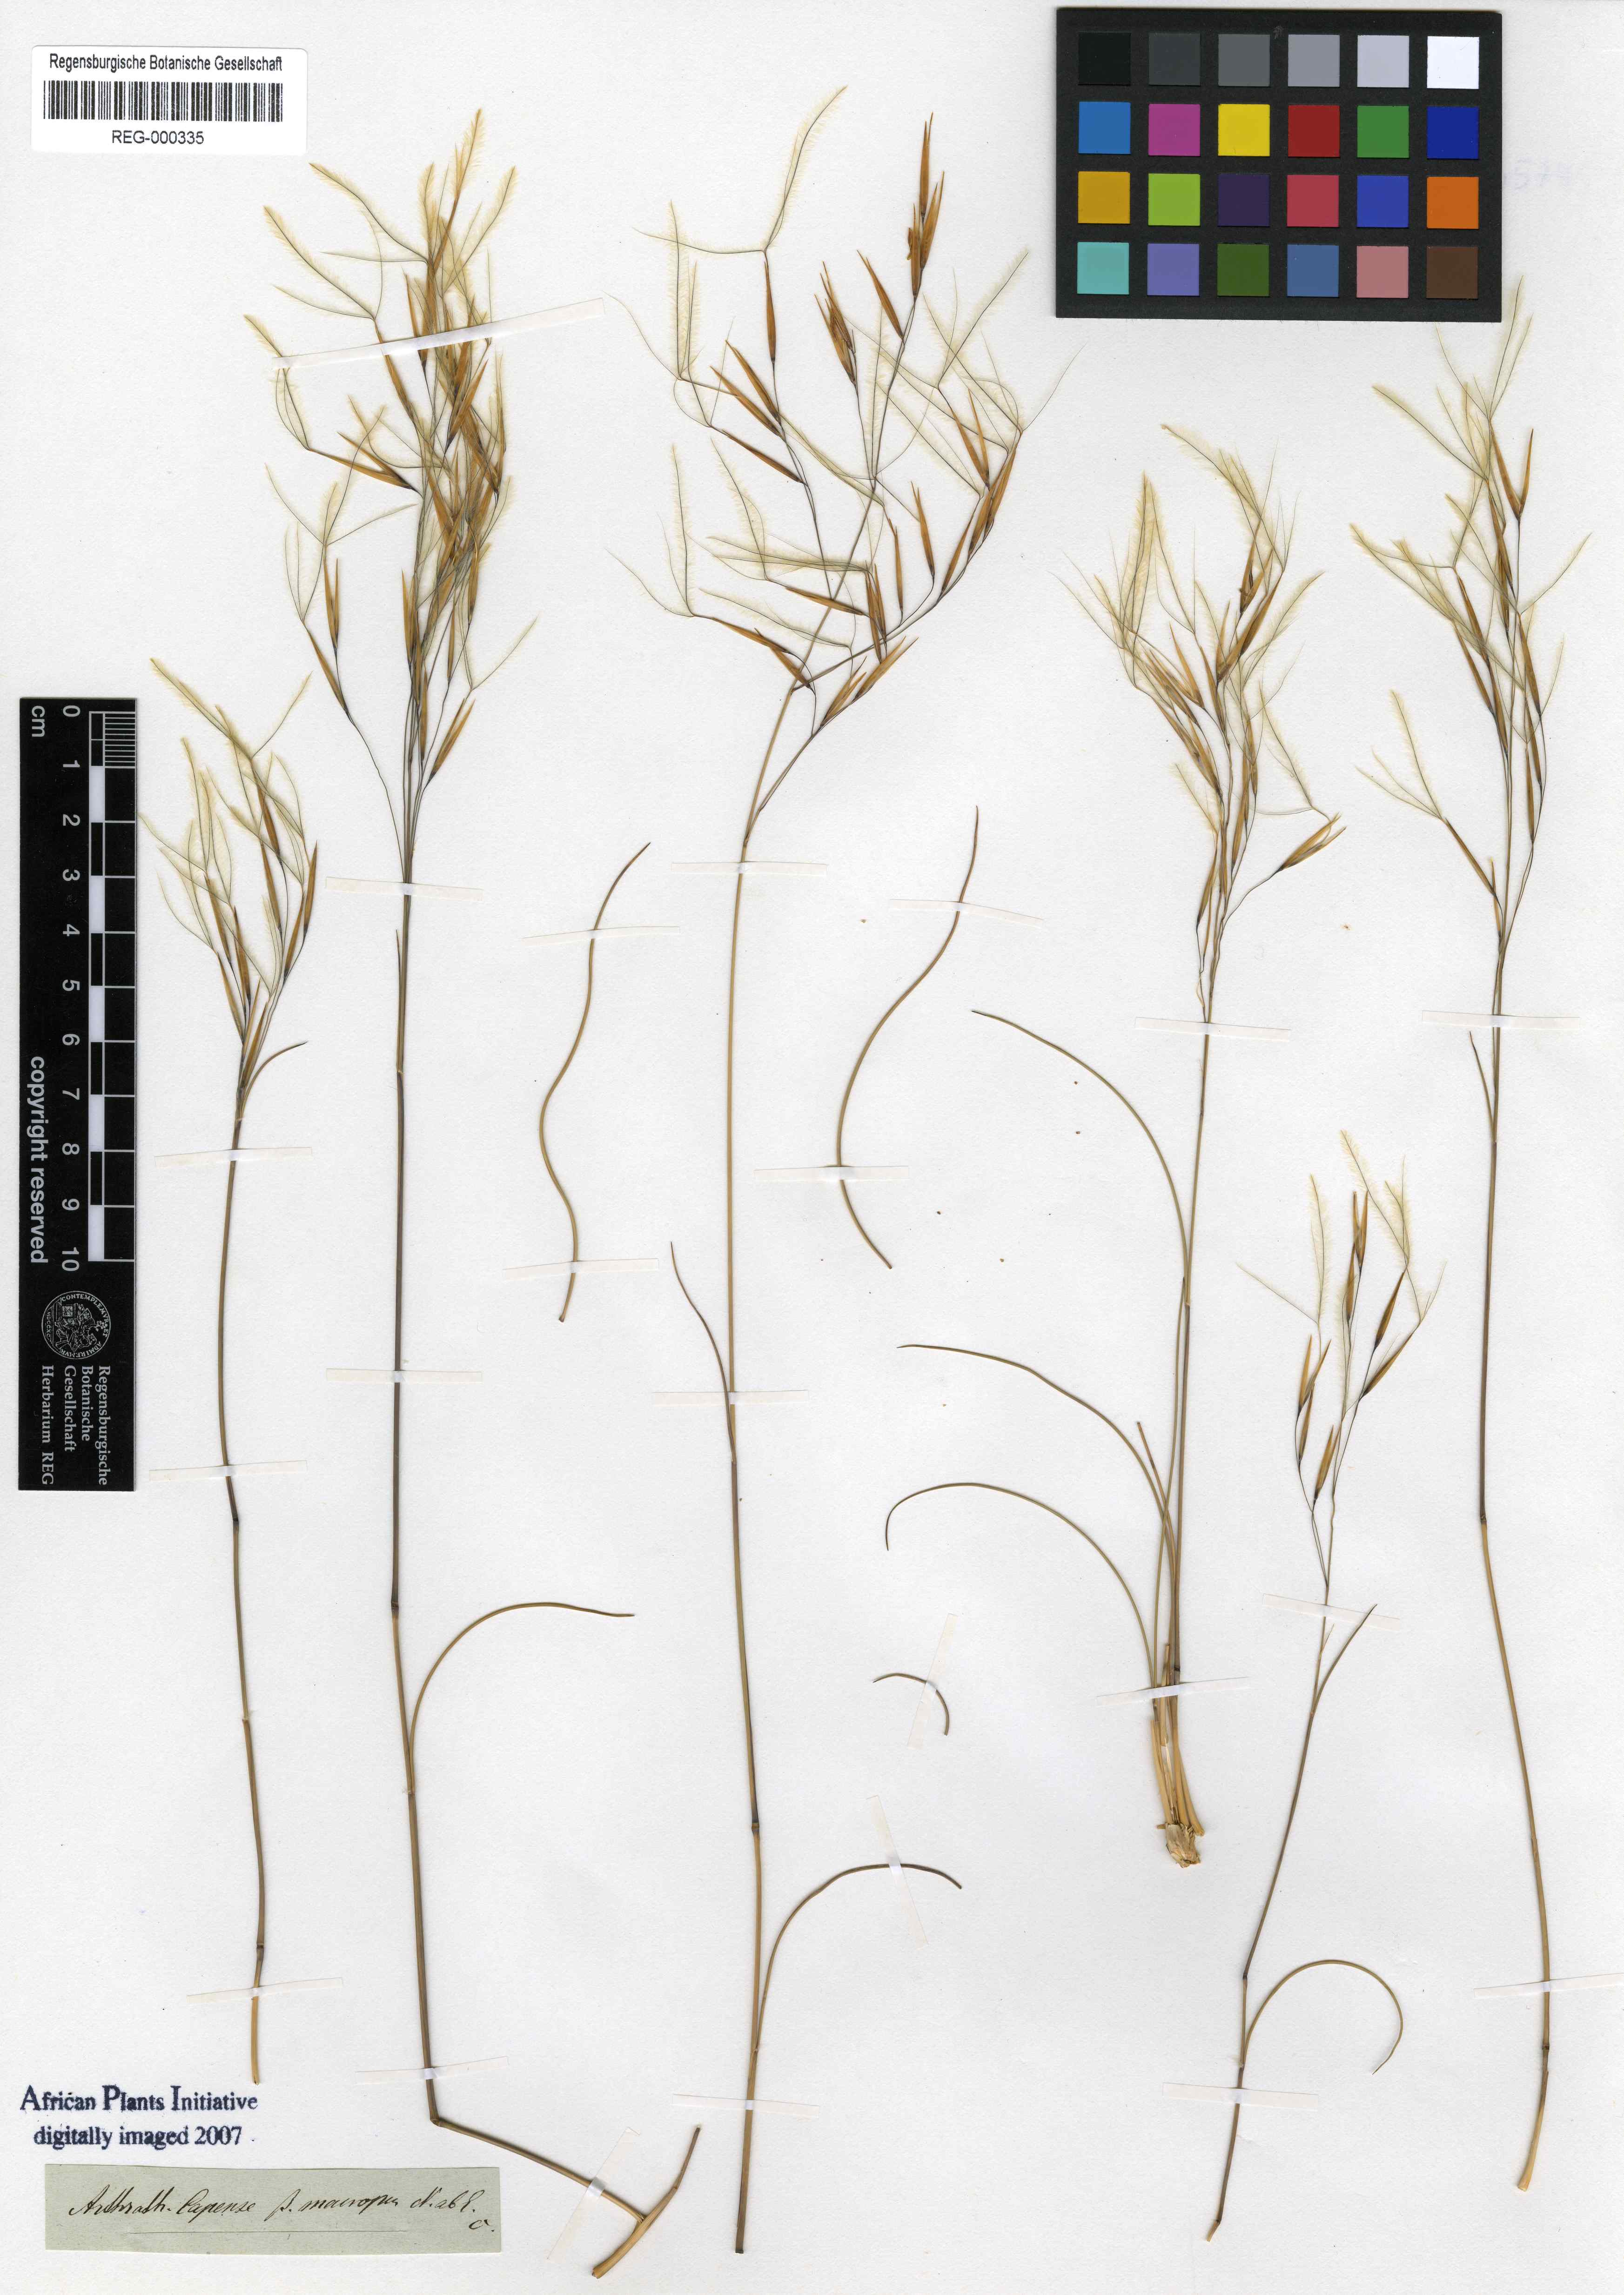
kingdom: Plantae
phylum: Tracheophyta
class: Liliopsida
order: Poales
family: Poaceae
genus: Stipagrostis
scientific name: Stipagrostis zeyheri
